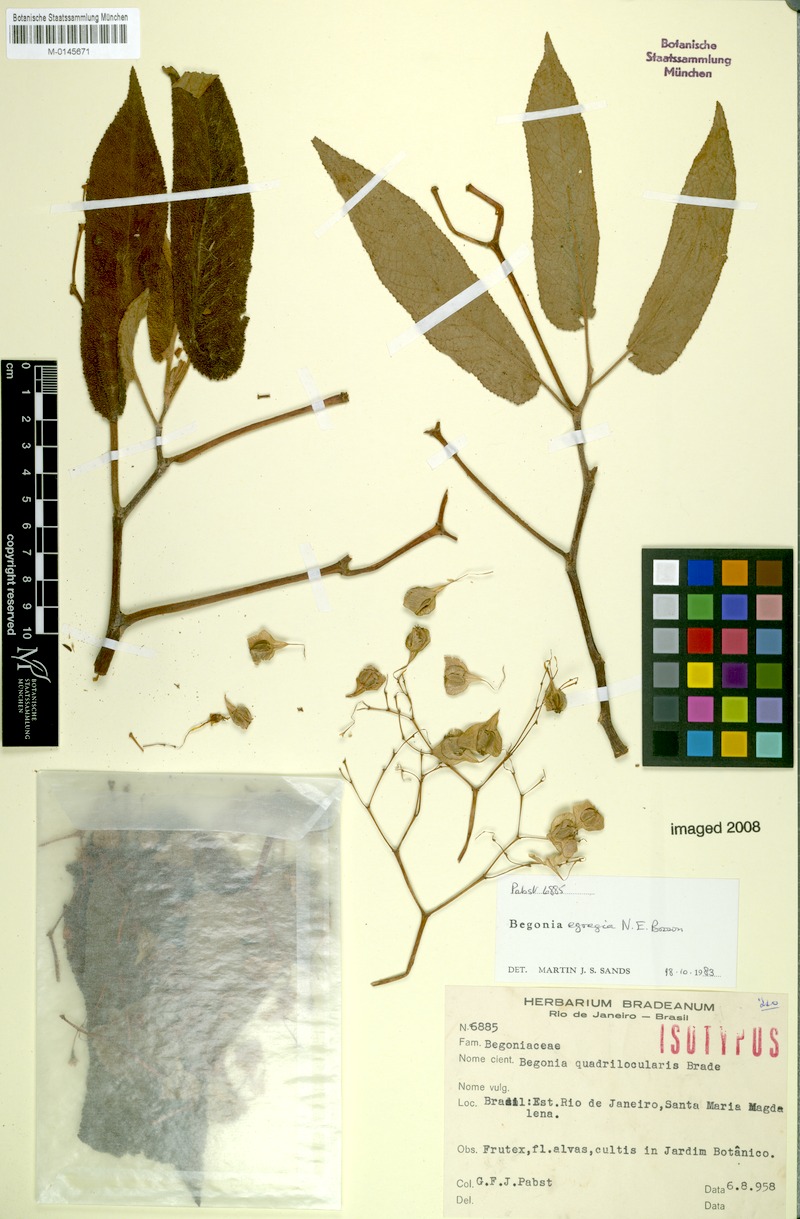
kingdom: Plantae
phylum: Tracheophyta
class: Magnoliopsida
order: Cucurbitales
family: Begoniaceae
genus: Begonia
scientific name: Begonia egregia
